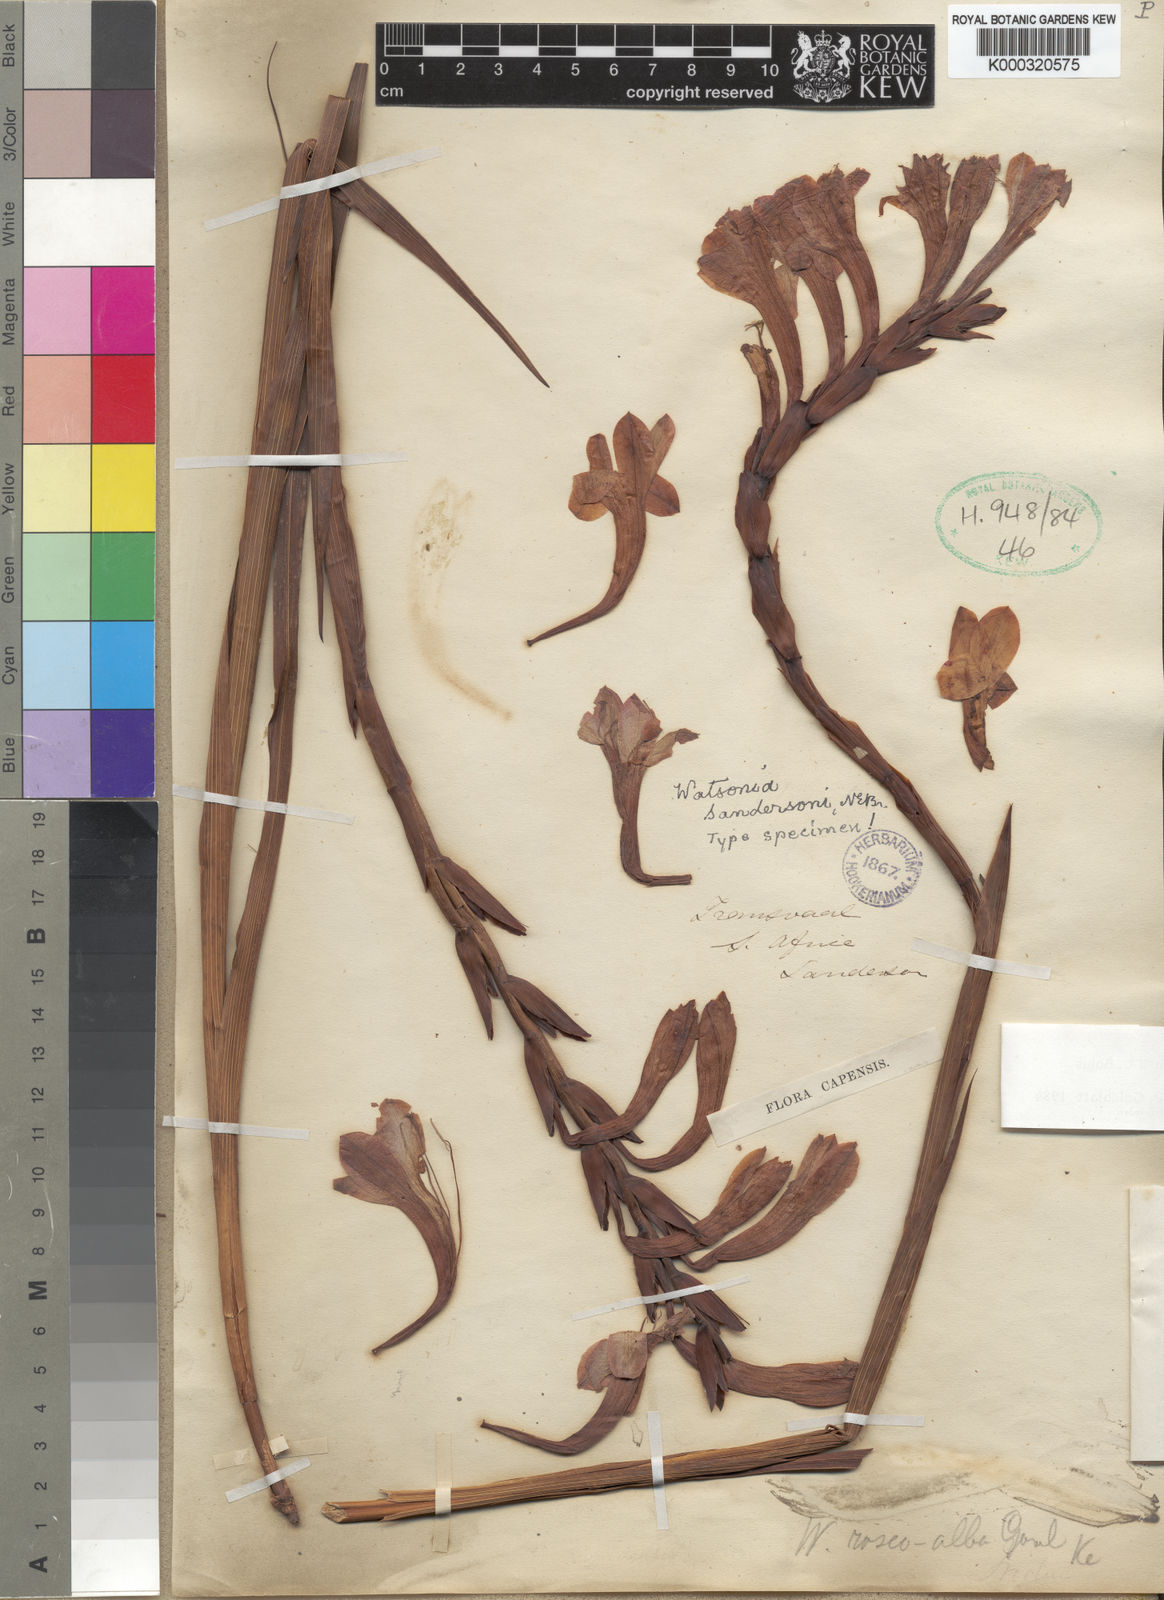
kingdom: Plantae
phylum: Tracheophyta
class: Liliopsida
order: Asparagales
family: Iridaceae
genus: Watsonia
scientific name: Watsonia pillansii
